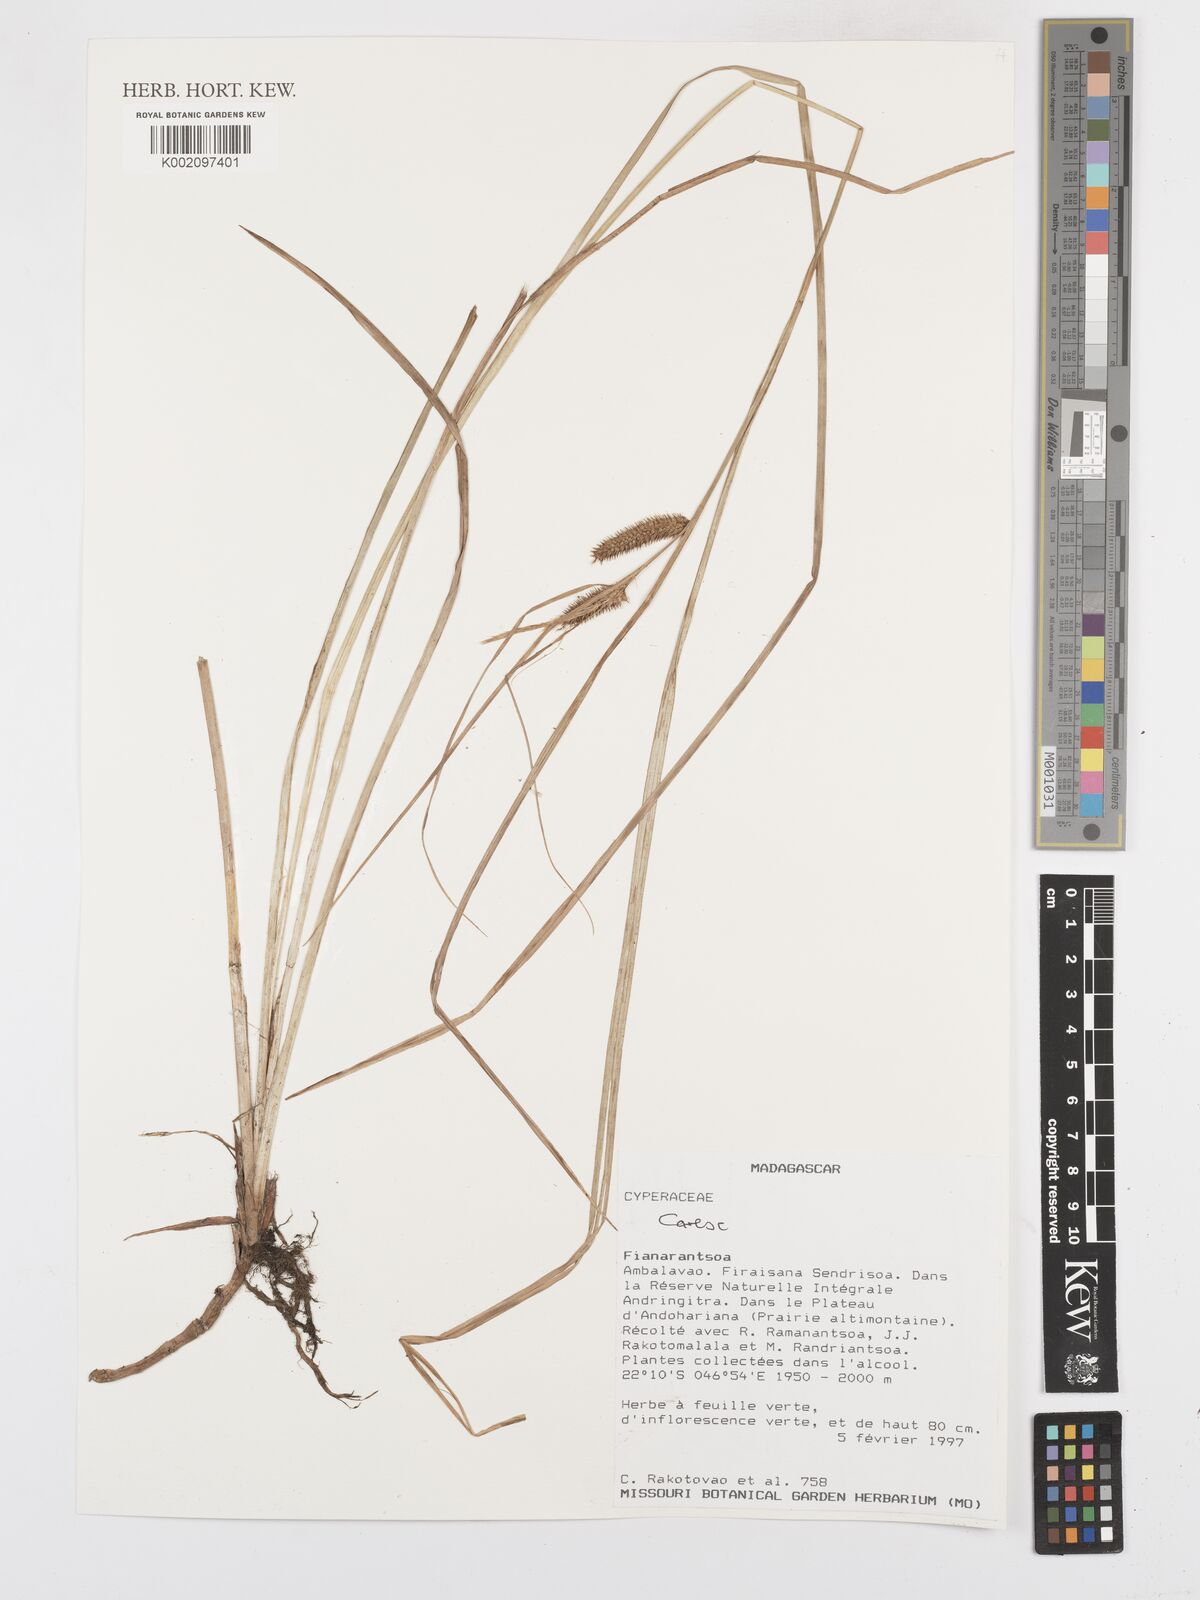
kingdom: Plantae
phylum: Tracheophyta
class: Liliopsida
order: Poales
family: Cyperaceae
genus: Carex
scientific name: Carex
